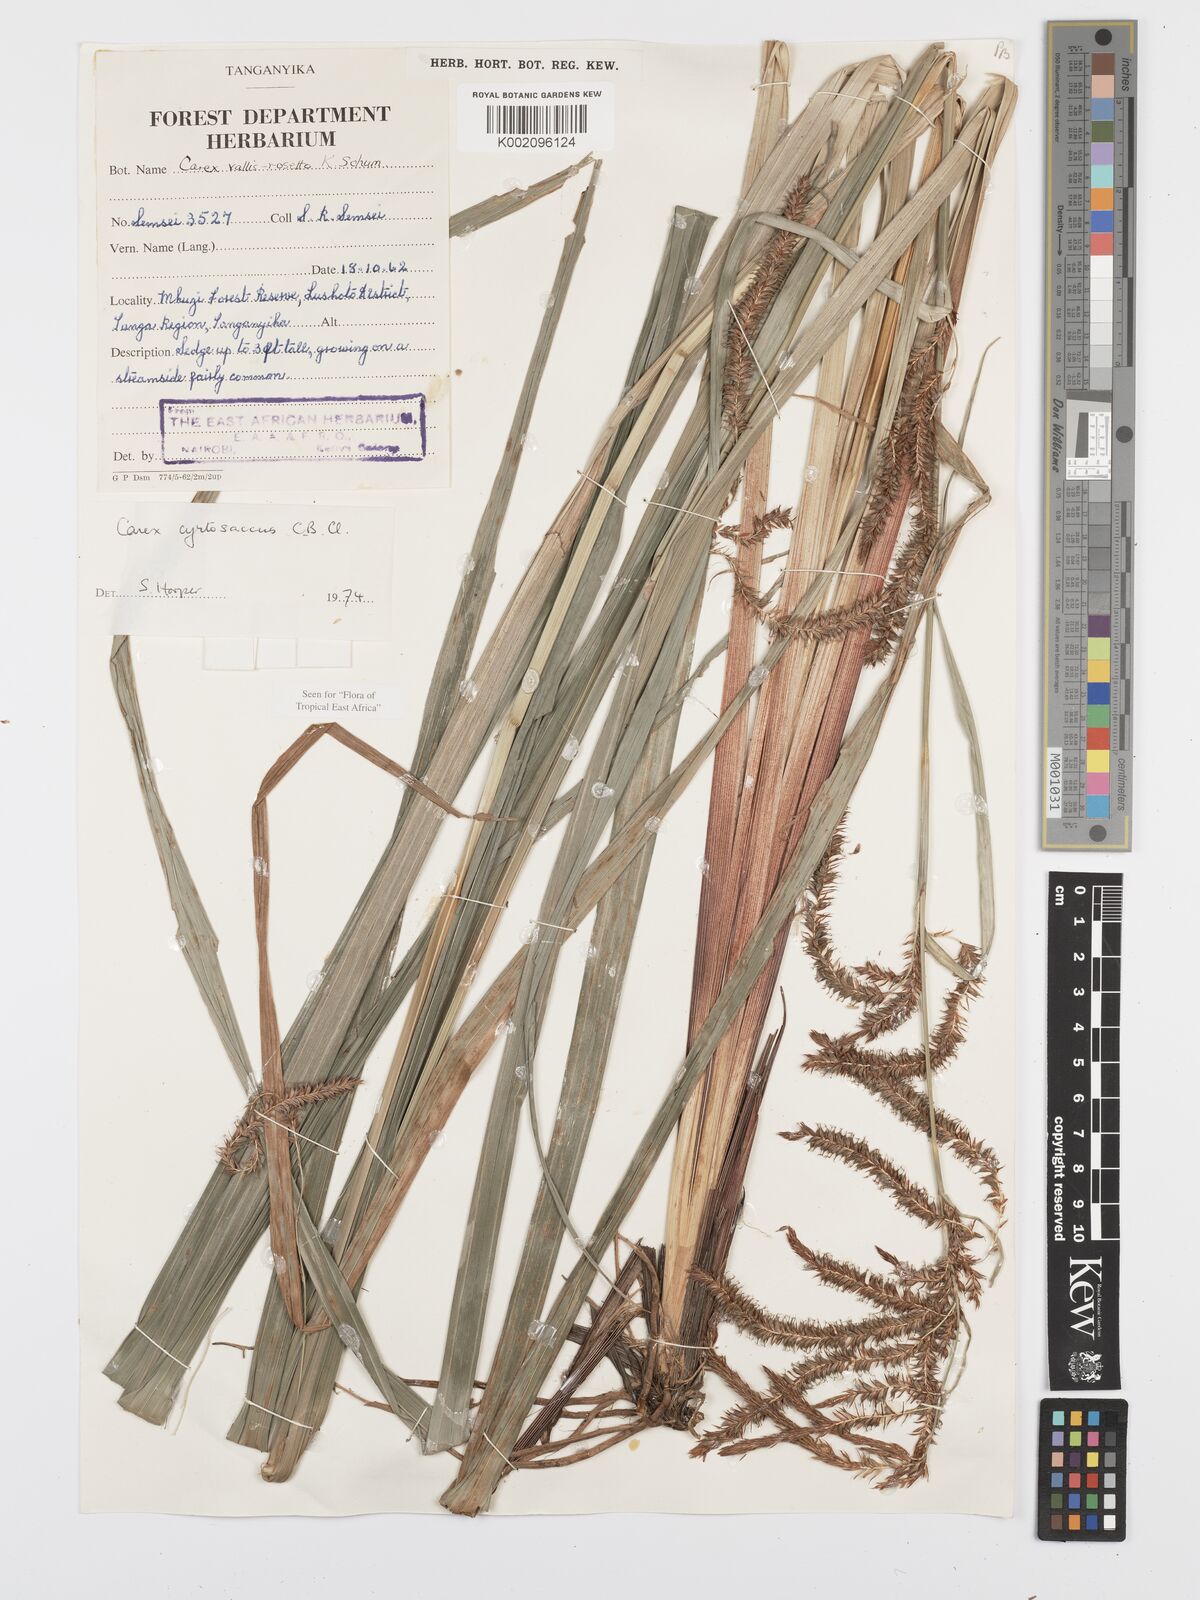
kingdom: Plantae
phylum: Tracheophyta
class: Liliopsida
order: Poales
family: Cyperaceae
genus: Carex
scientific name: Carex vallis-rosetto
